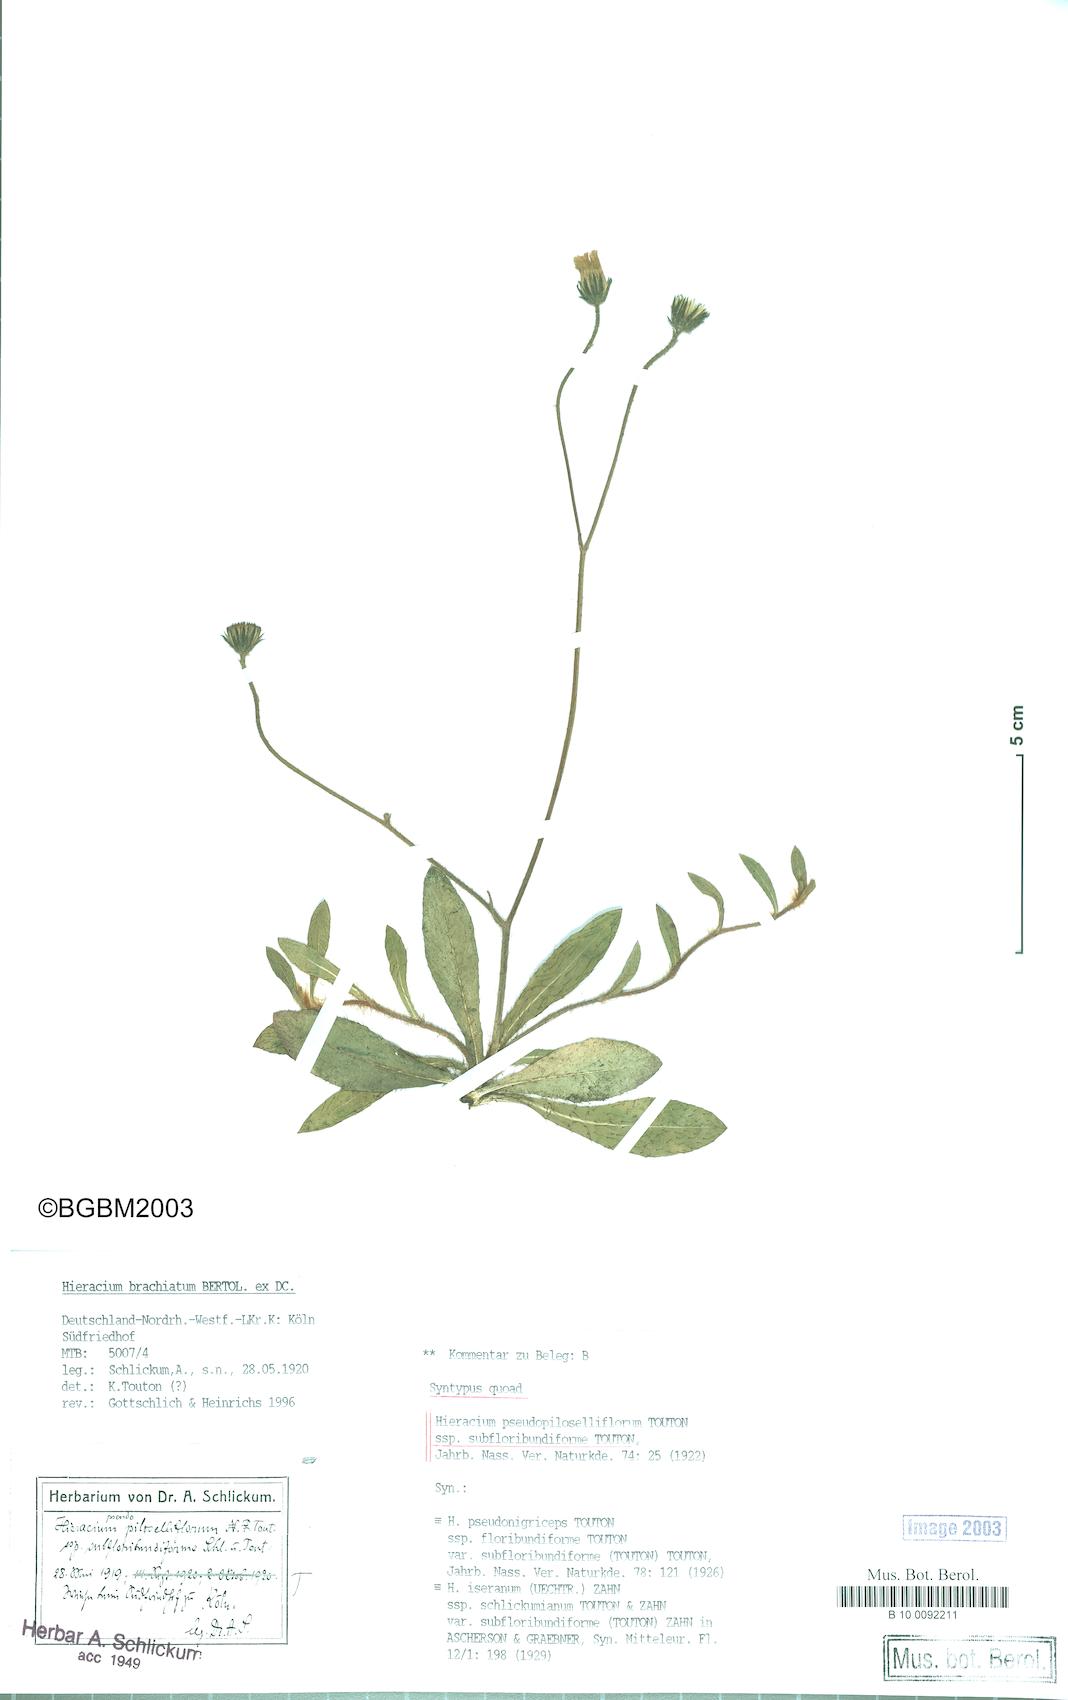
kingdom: Plantae
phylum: Tracheophyta
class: Magnoliopsida
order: Asterales
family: Asteraceae
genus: Pilosella
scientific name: Pilosella piloselliflora
